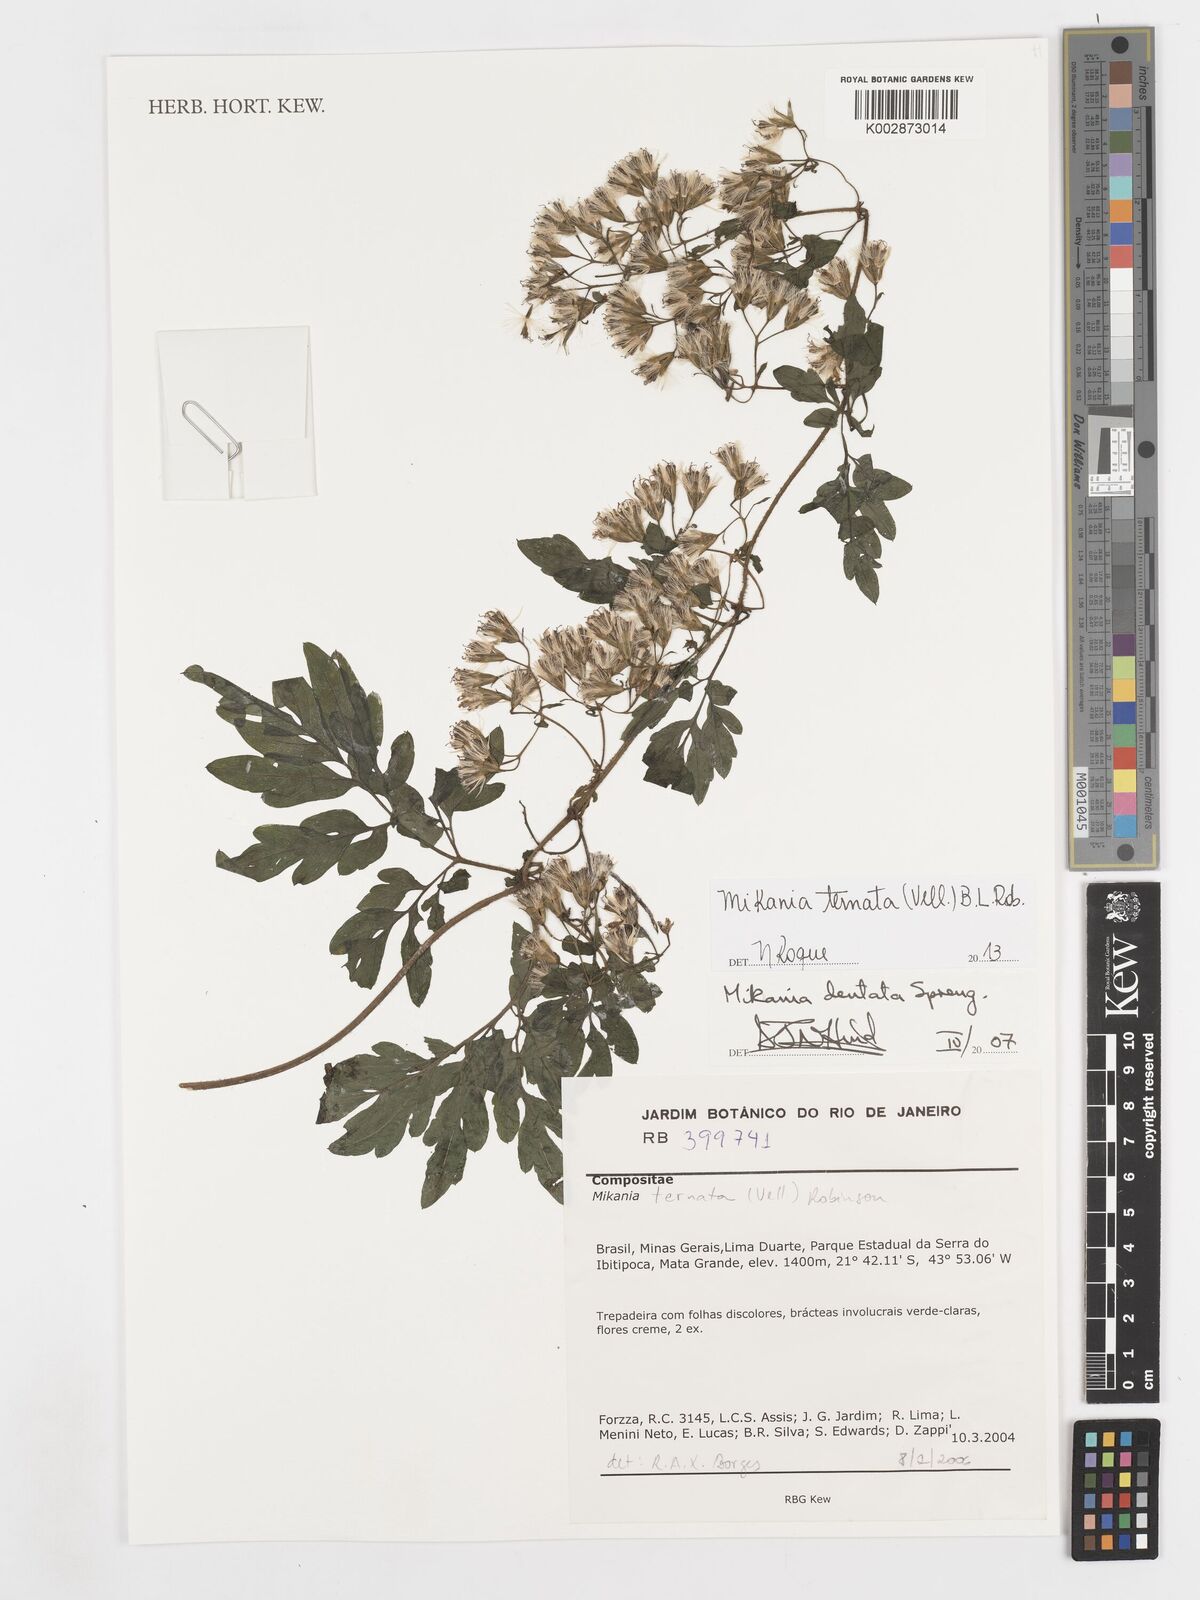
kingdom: Plantae
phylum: Tracheophyta
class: Magnoliopsida
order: Asterales
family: Asteraceae
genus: Calea
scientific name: Calea pinnatifida
